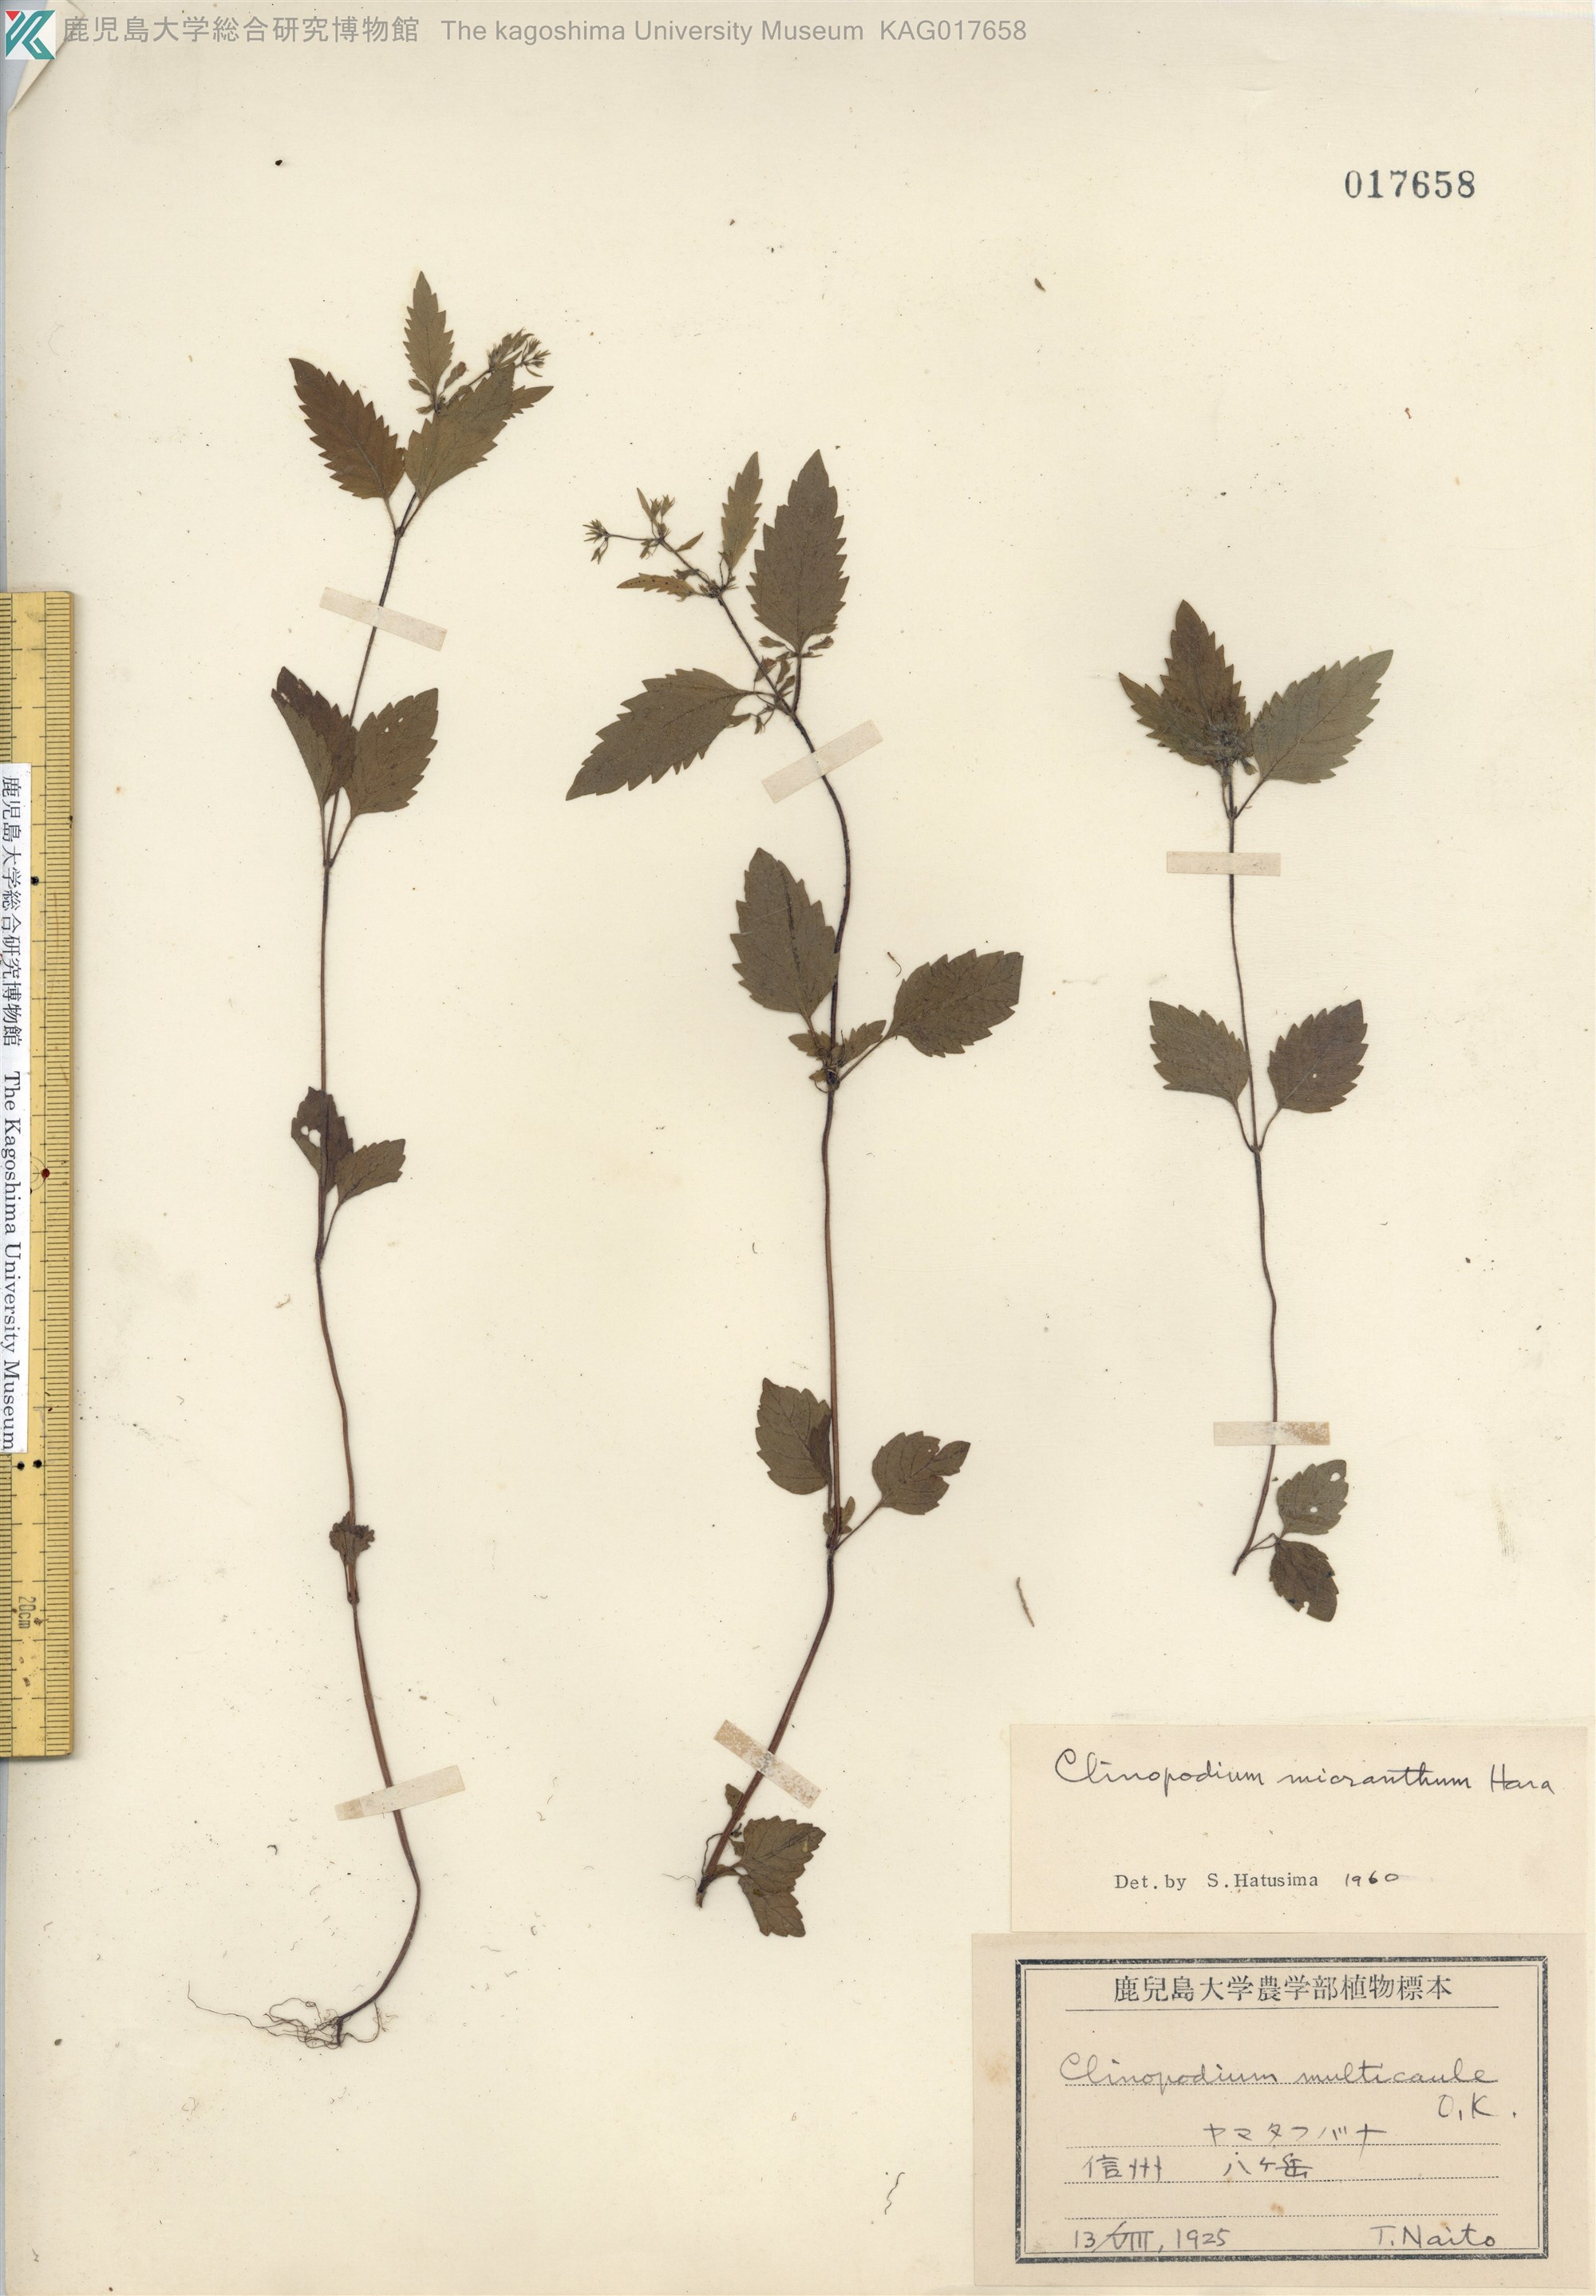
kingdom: Plantae
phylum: Tracheophyta
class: Magnoliopsida
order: Lamiales
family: Lamiaceae
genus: Clinopodium
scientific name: Clinopodium micranthum
